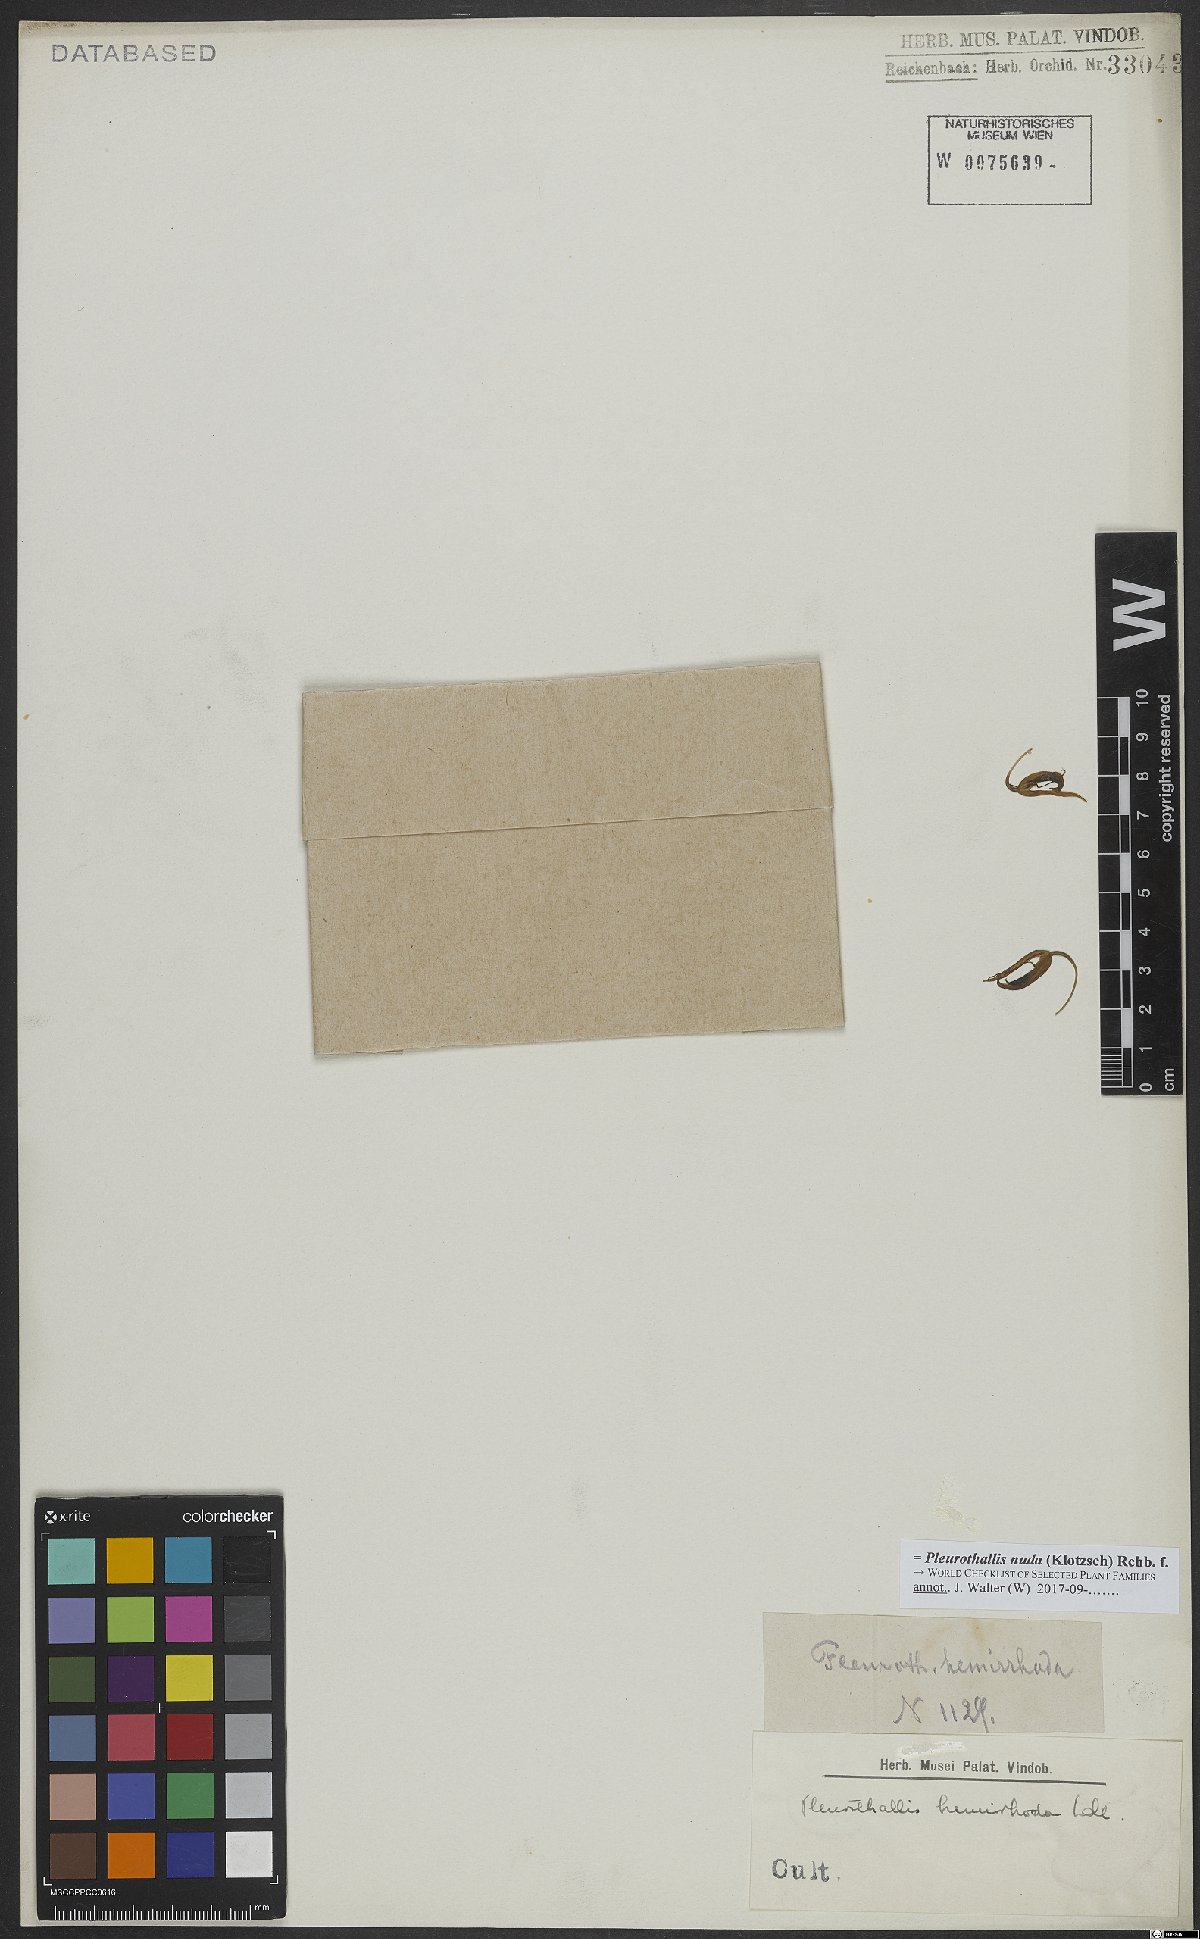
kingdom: Plantae
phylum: Tracheophyta
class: Liliopsida
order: Asparagales
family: Orchidaceae
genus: Pleurothallis
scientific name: Pleurothallis nuda
